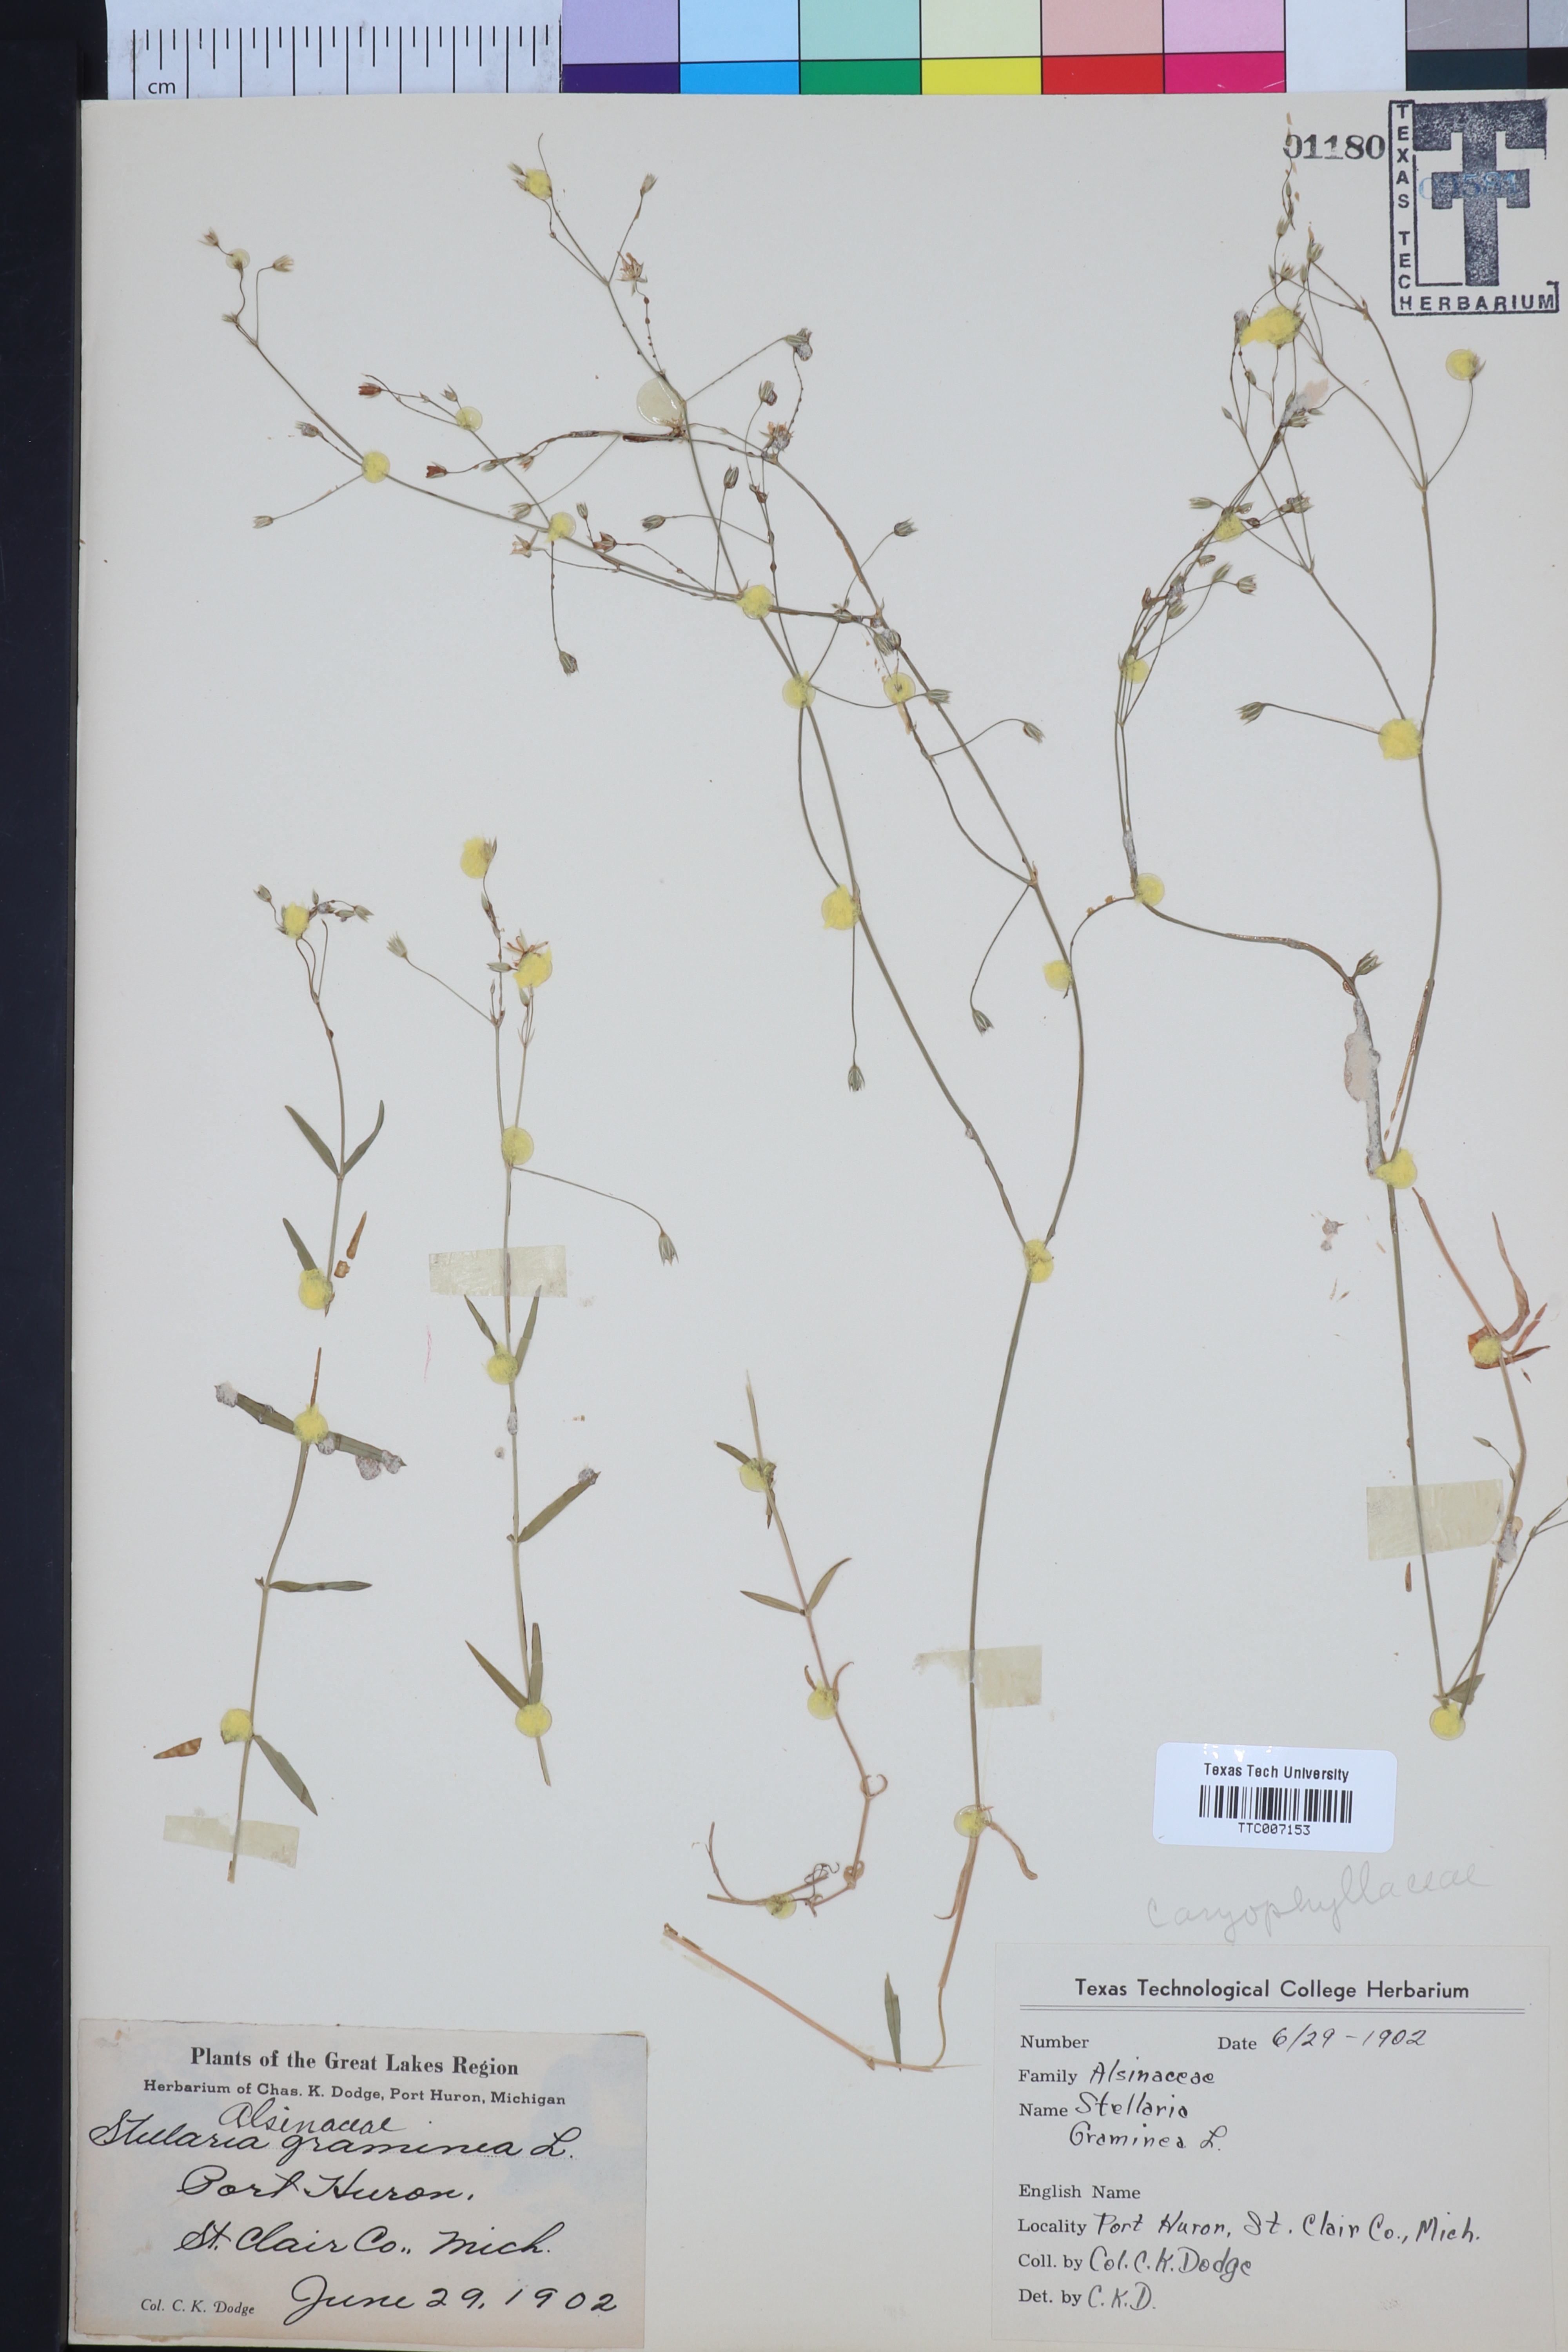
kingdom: Plantae
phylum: Tracheophyta
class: Magnoliopsida
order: Caryophyllales
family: Caryophyllaceae
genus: Stellaria
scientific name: Stellaria graminea
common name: Grass-like starwort
